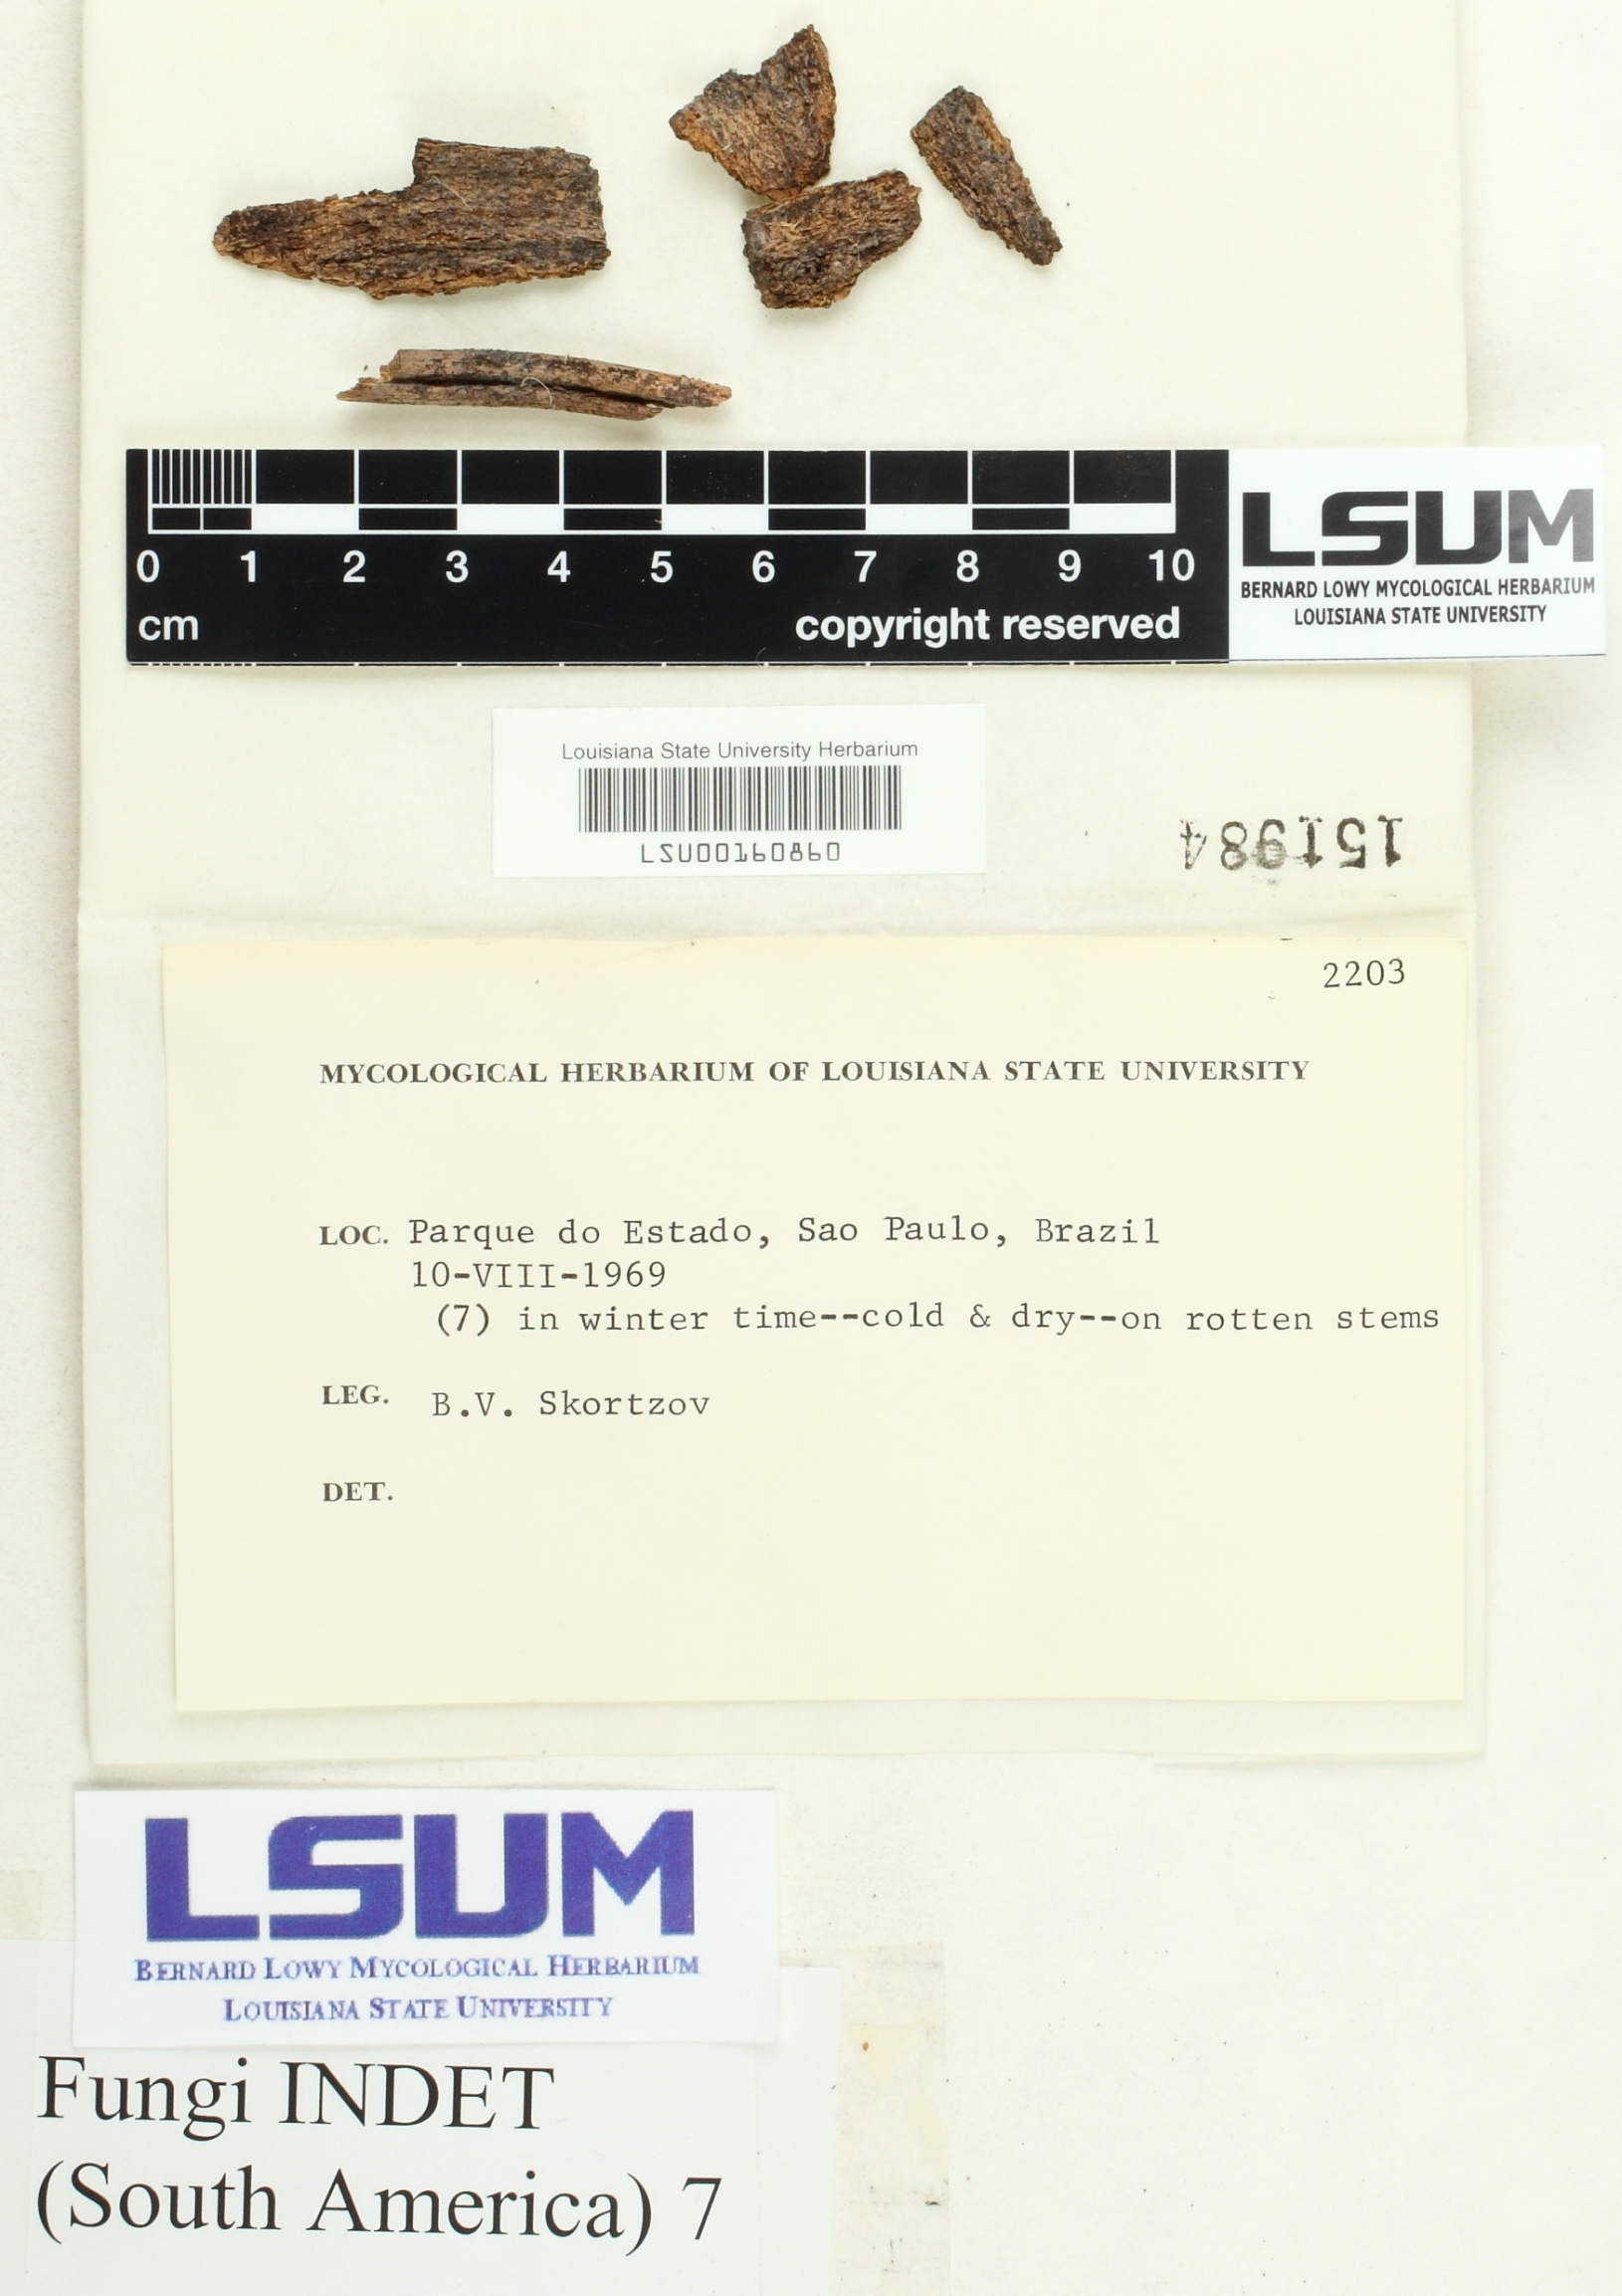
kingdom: Fungi
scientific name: Fungi
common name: Fungi
